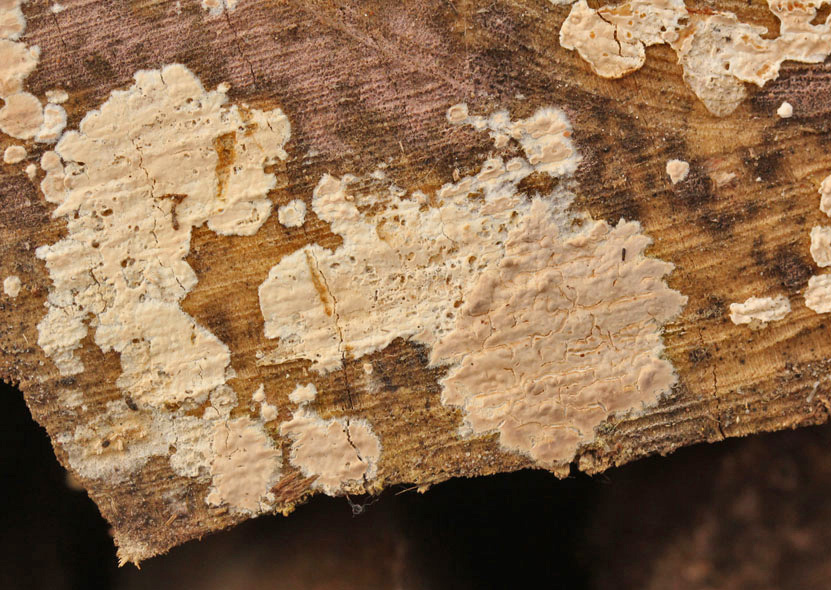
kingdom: Fungi
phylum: Basidiomycota
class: Agaricomycetes
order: Agaricales
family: Physalacriaceae
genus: Cylindrobasidium
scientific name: Cylindrobasidium evolvens
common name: sprækkehinde
